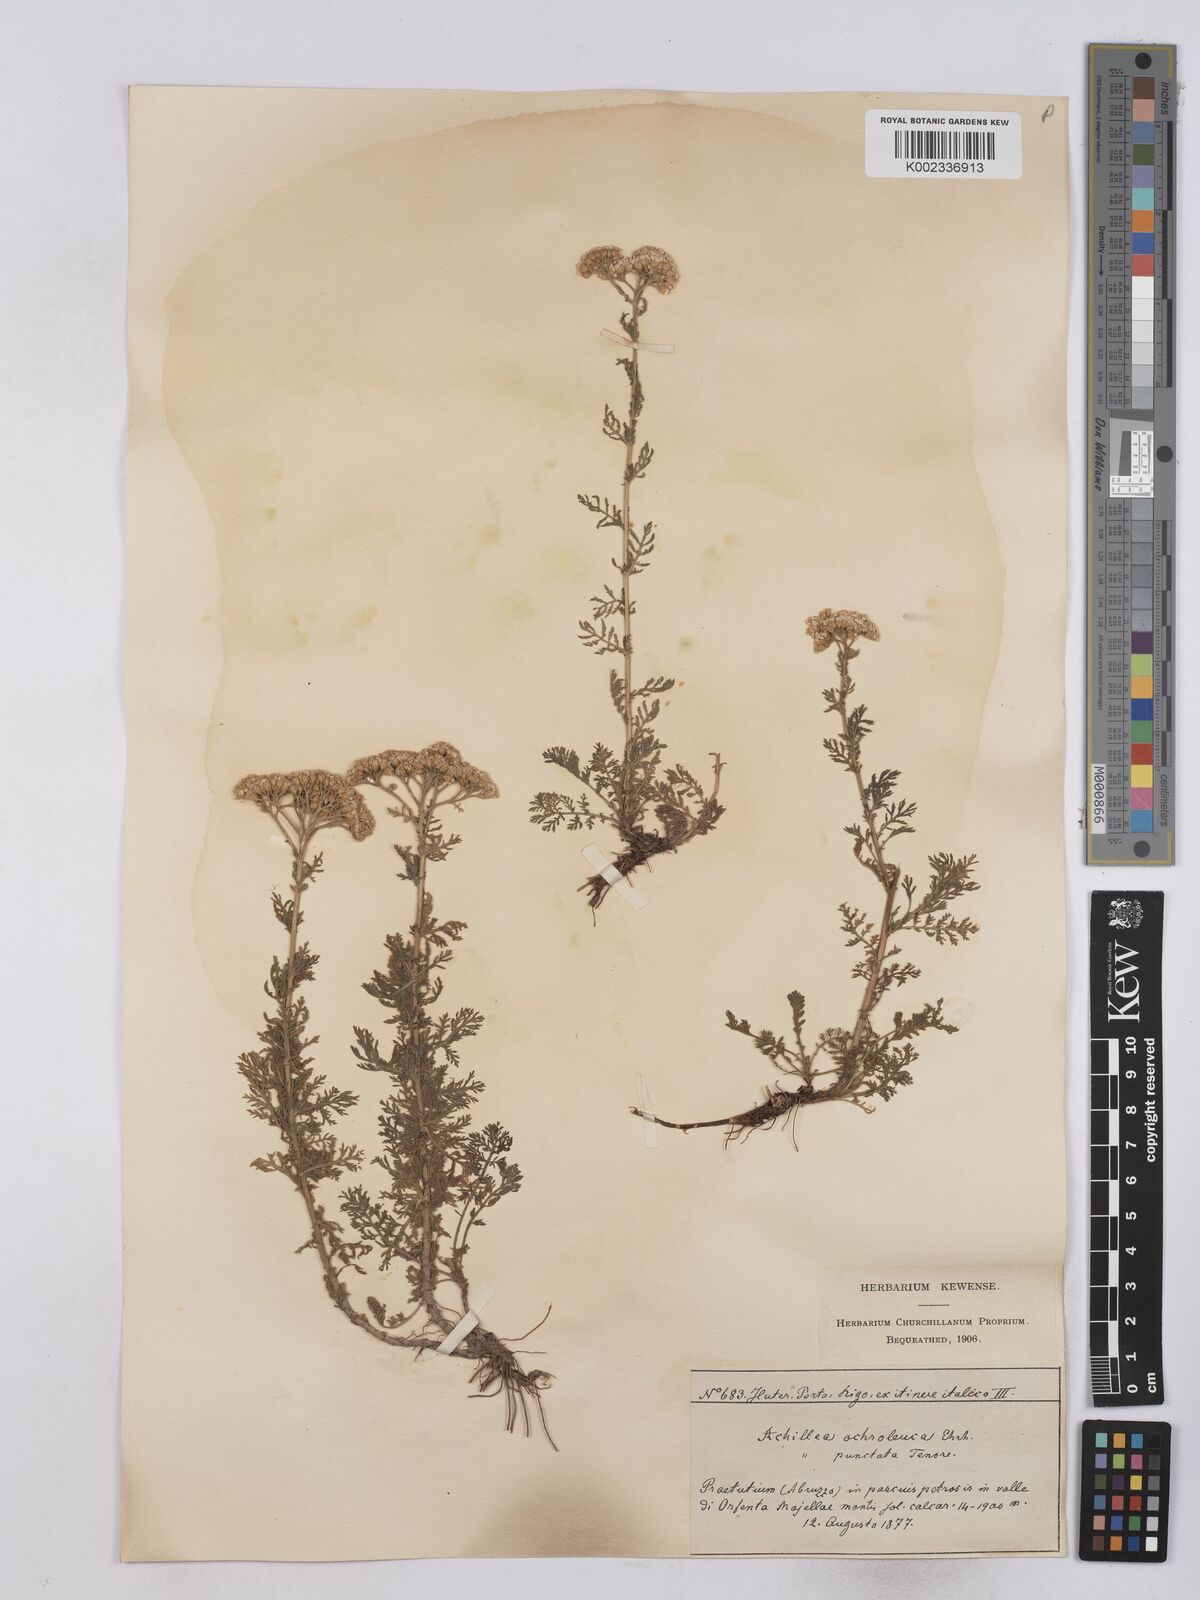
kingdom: Plantae
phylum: Tracheophyta
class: Magnoliopsida
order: Asterales
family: Asteraceae
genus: Achillea
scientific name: Achillea odorata
